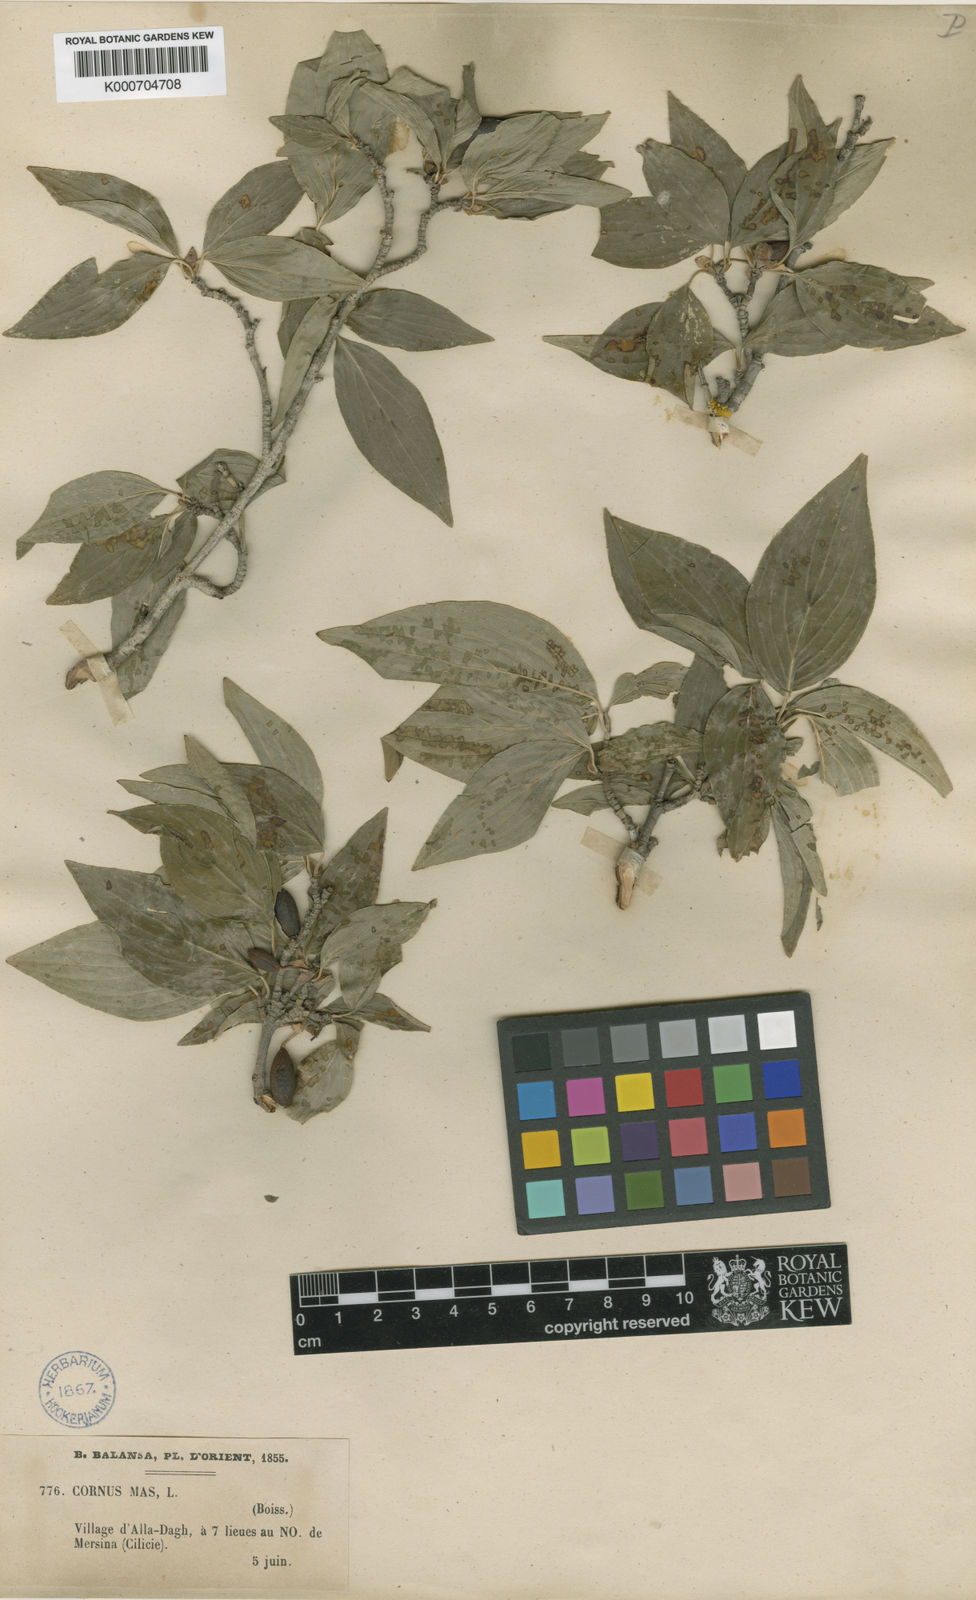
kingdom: Plantae
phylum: Tracheophyta
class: Magnoliopsida
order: Cornales
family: Cornaceae
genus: Cornus
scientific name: Cornus sanguinea
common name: Dogwood
